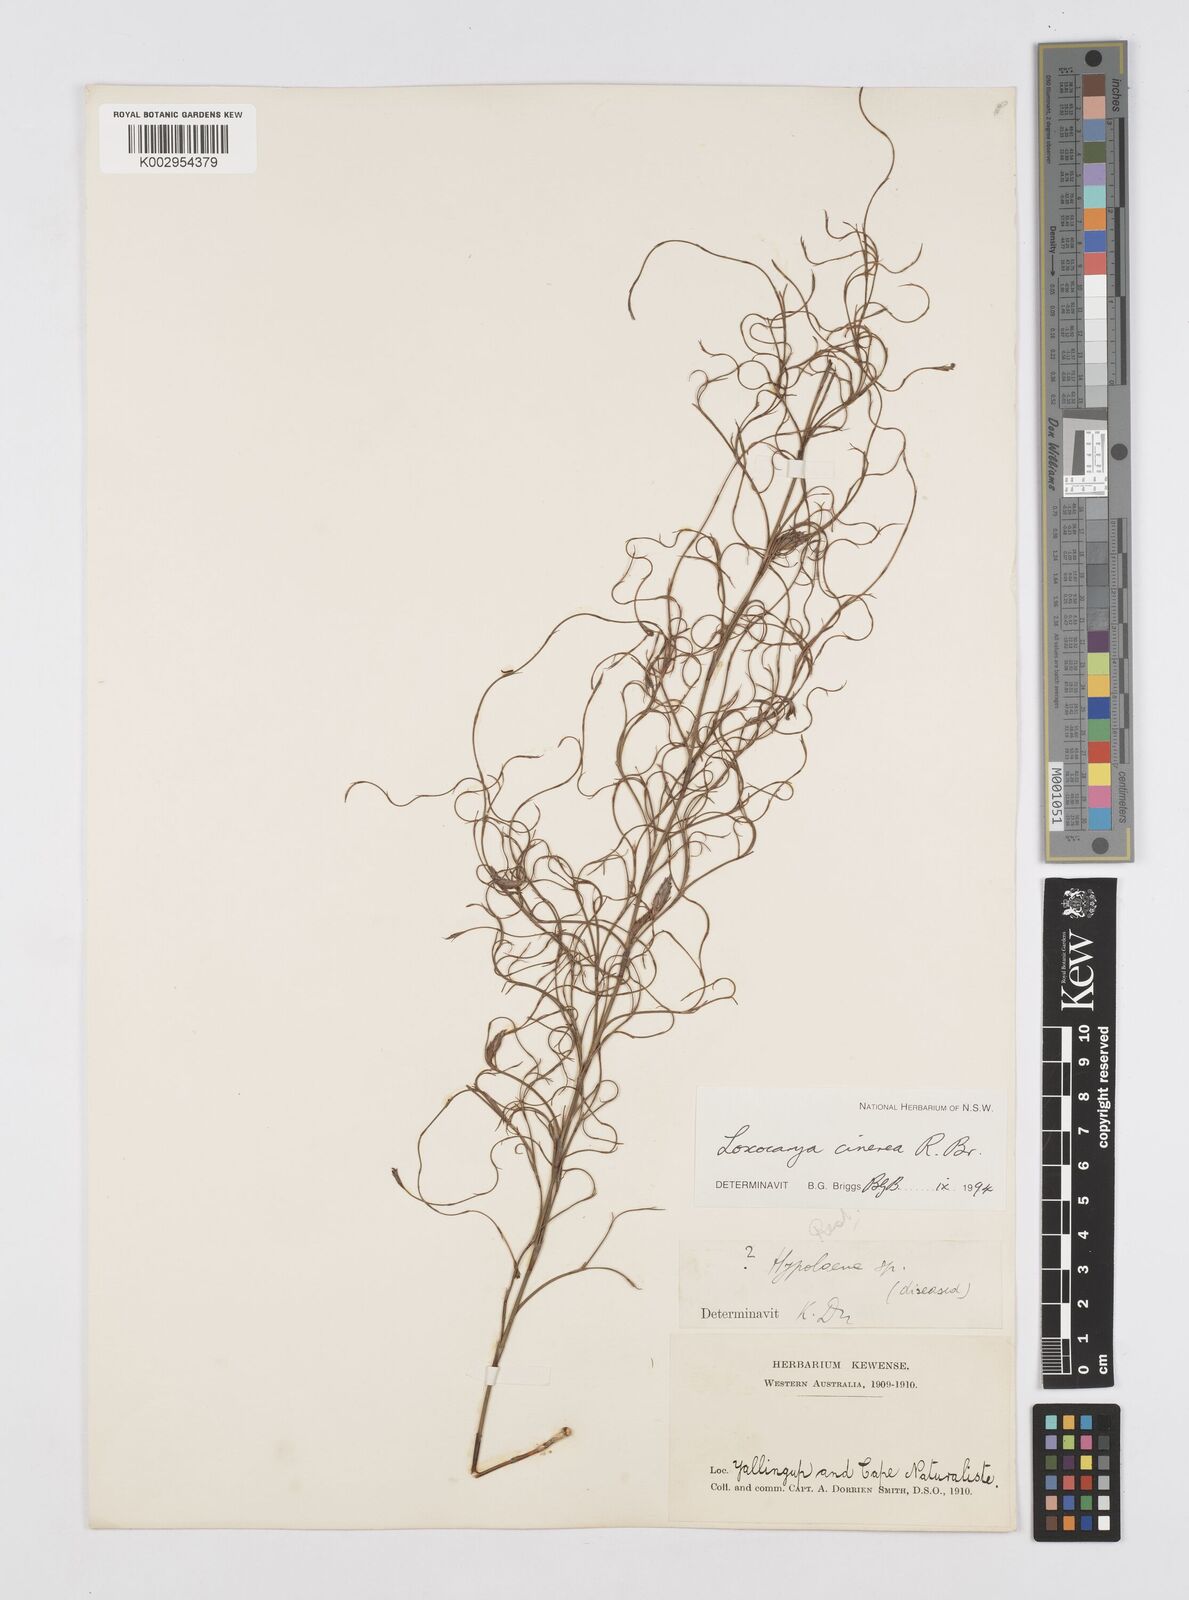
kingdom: Plantae
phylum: Tracheophyta
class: Liliopsida
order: Poales
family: Restionaceae
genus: Loxocarya
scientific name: Loxocarya cinerea
